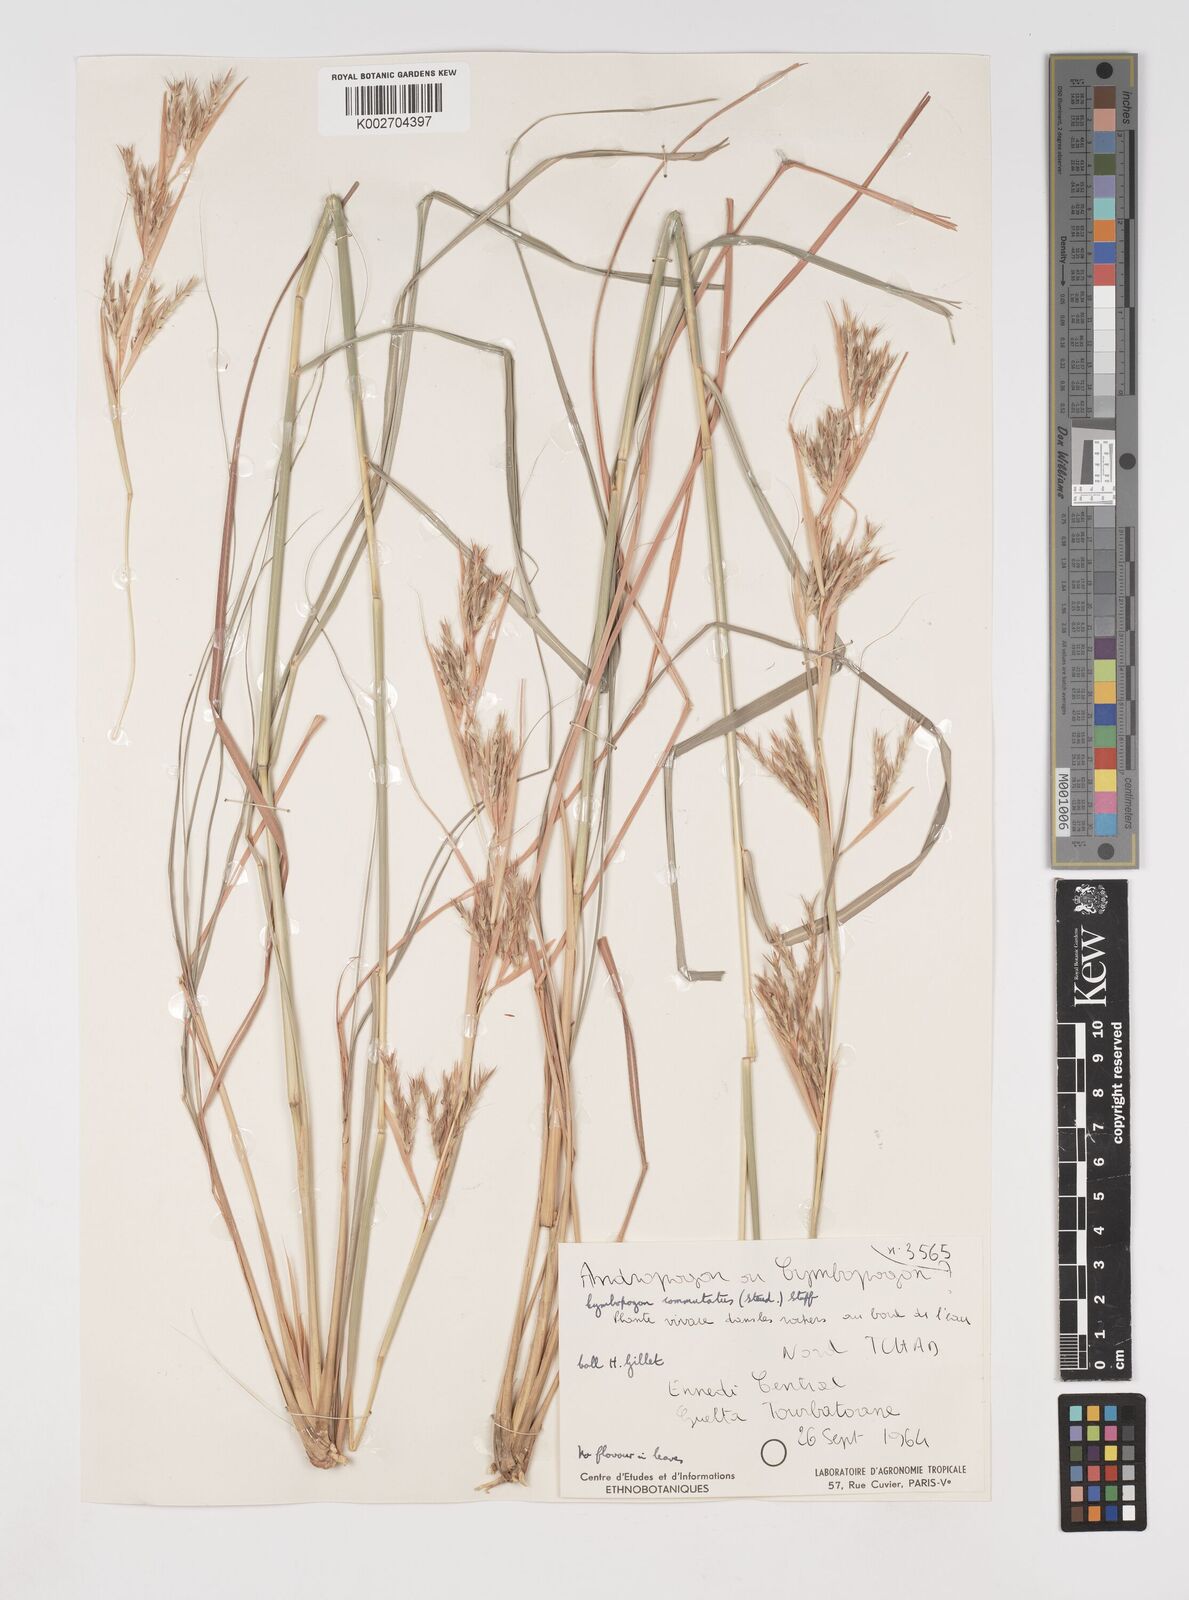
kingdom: Plantae
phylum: Tracheophyta
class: Liliopsida
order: Poales
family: Poaceae
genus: Cymbopogon
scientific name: Cymbopogon commutatus
